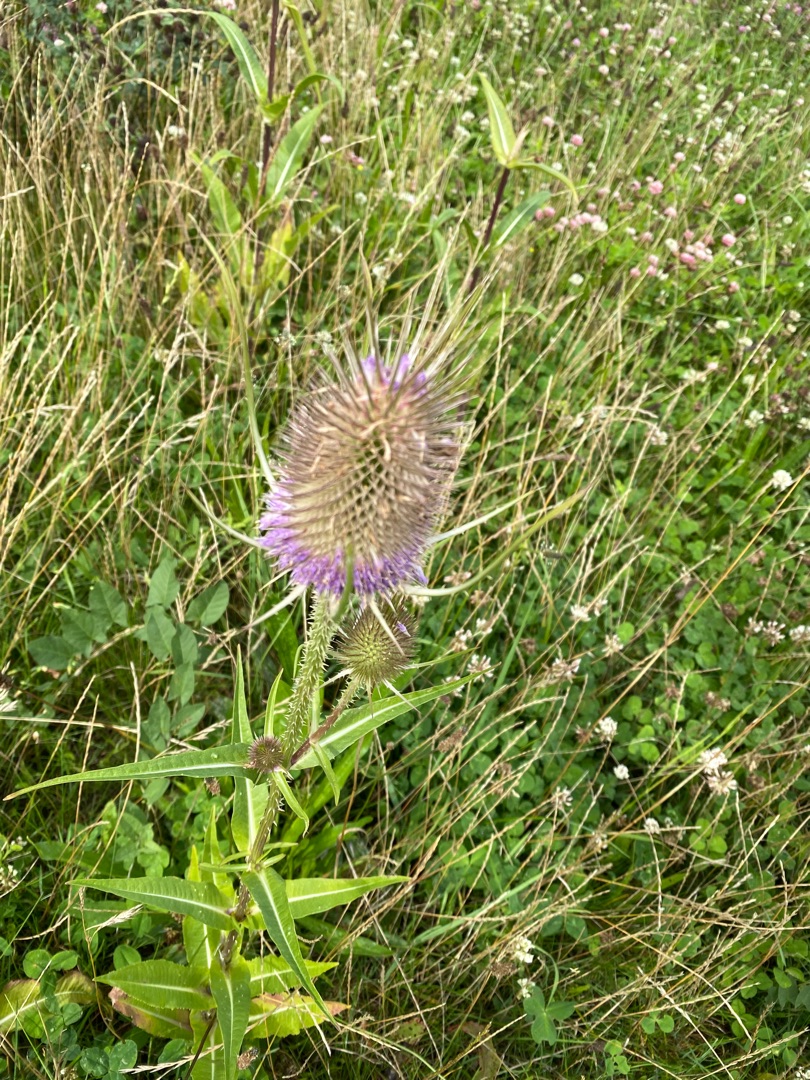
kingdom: Plantae
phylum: Tracheophyta
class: Magnoliopsida
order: Dipsacales
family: Caprifoliaceae
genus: Dipsacus
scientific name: Dipsacus fullonum
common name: Gærde-kartebolle
